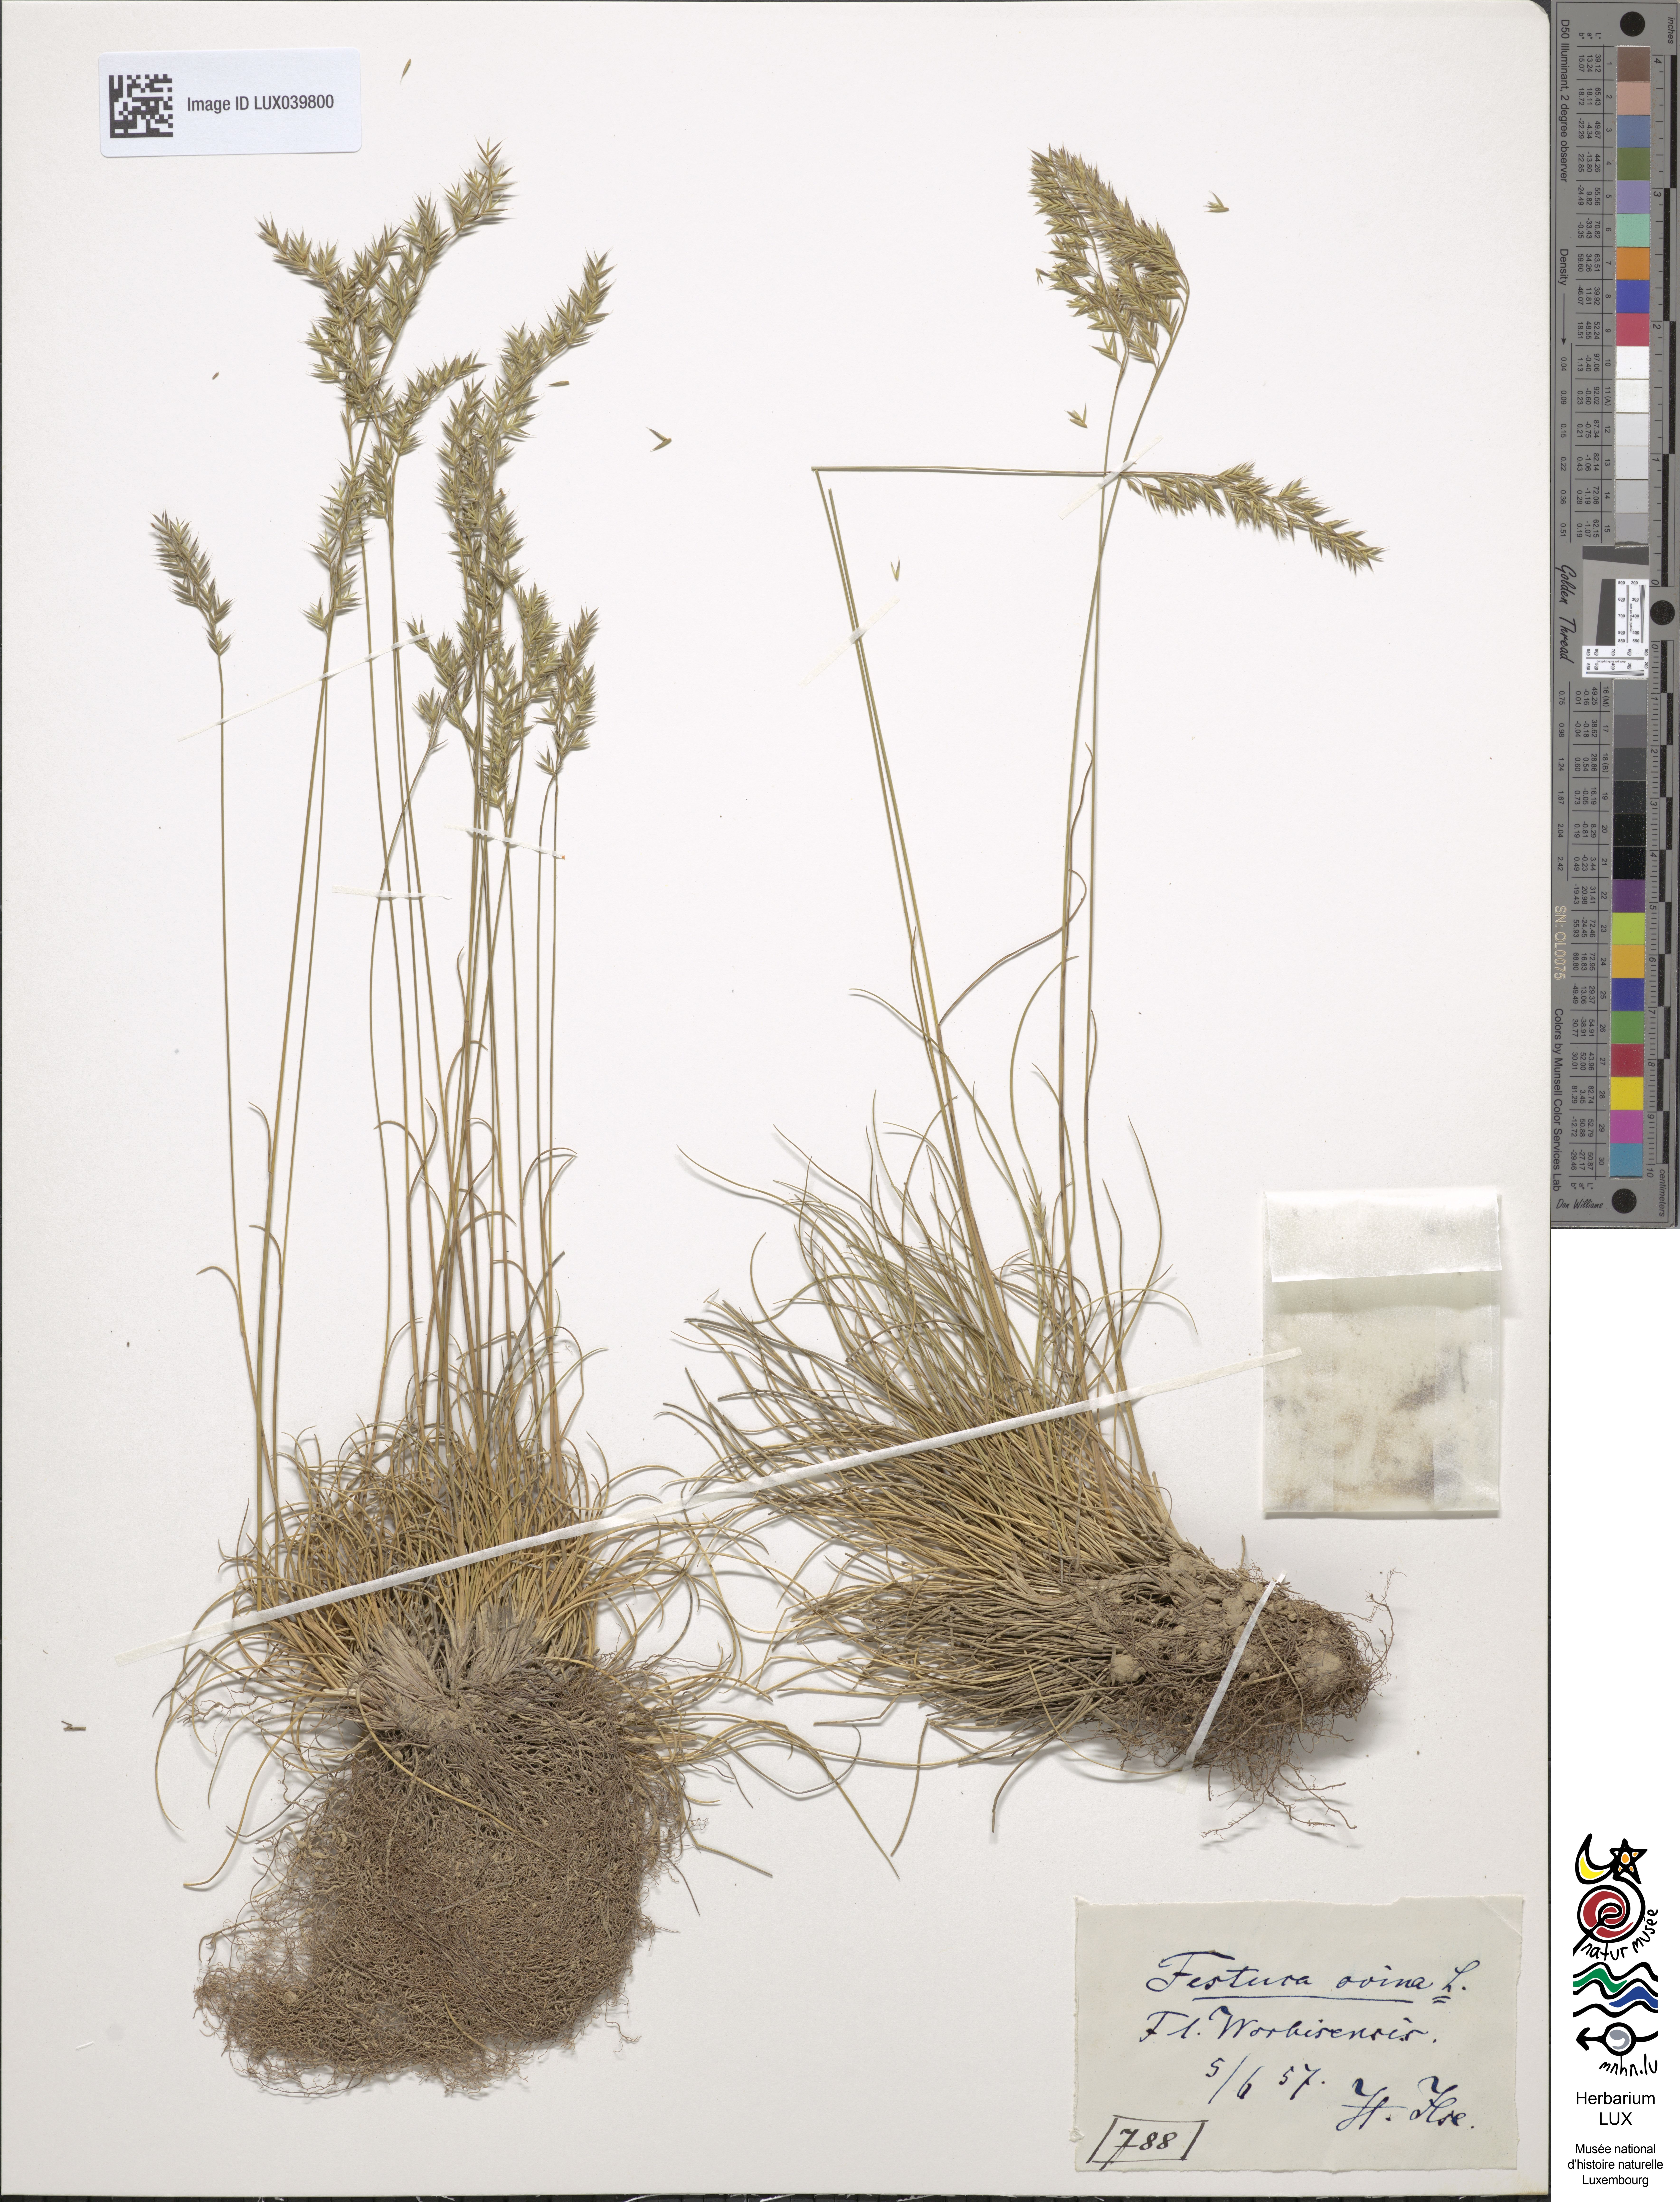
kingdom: Plantae
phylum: Tracheophyta
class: Liliopsida
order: Poales
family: Poaceae
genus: Festuca
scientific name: Festuca ovina
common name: Sheep fescue
